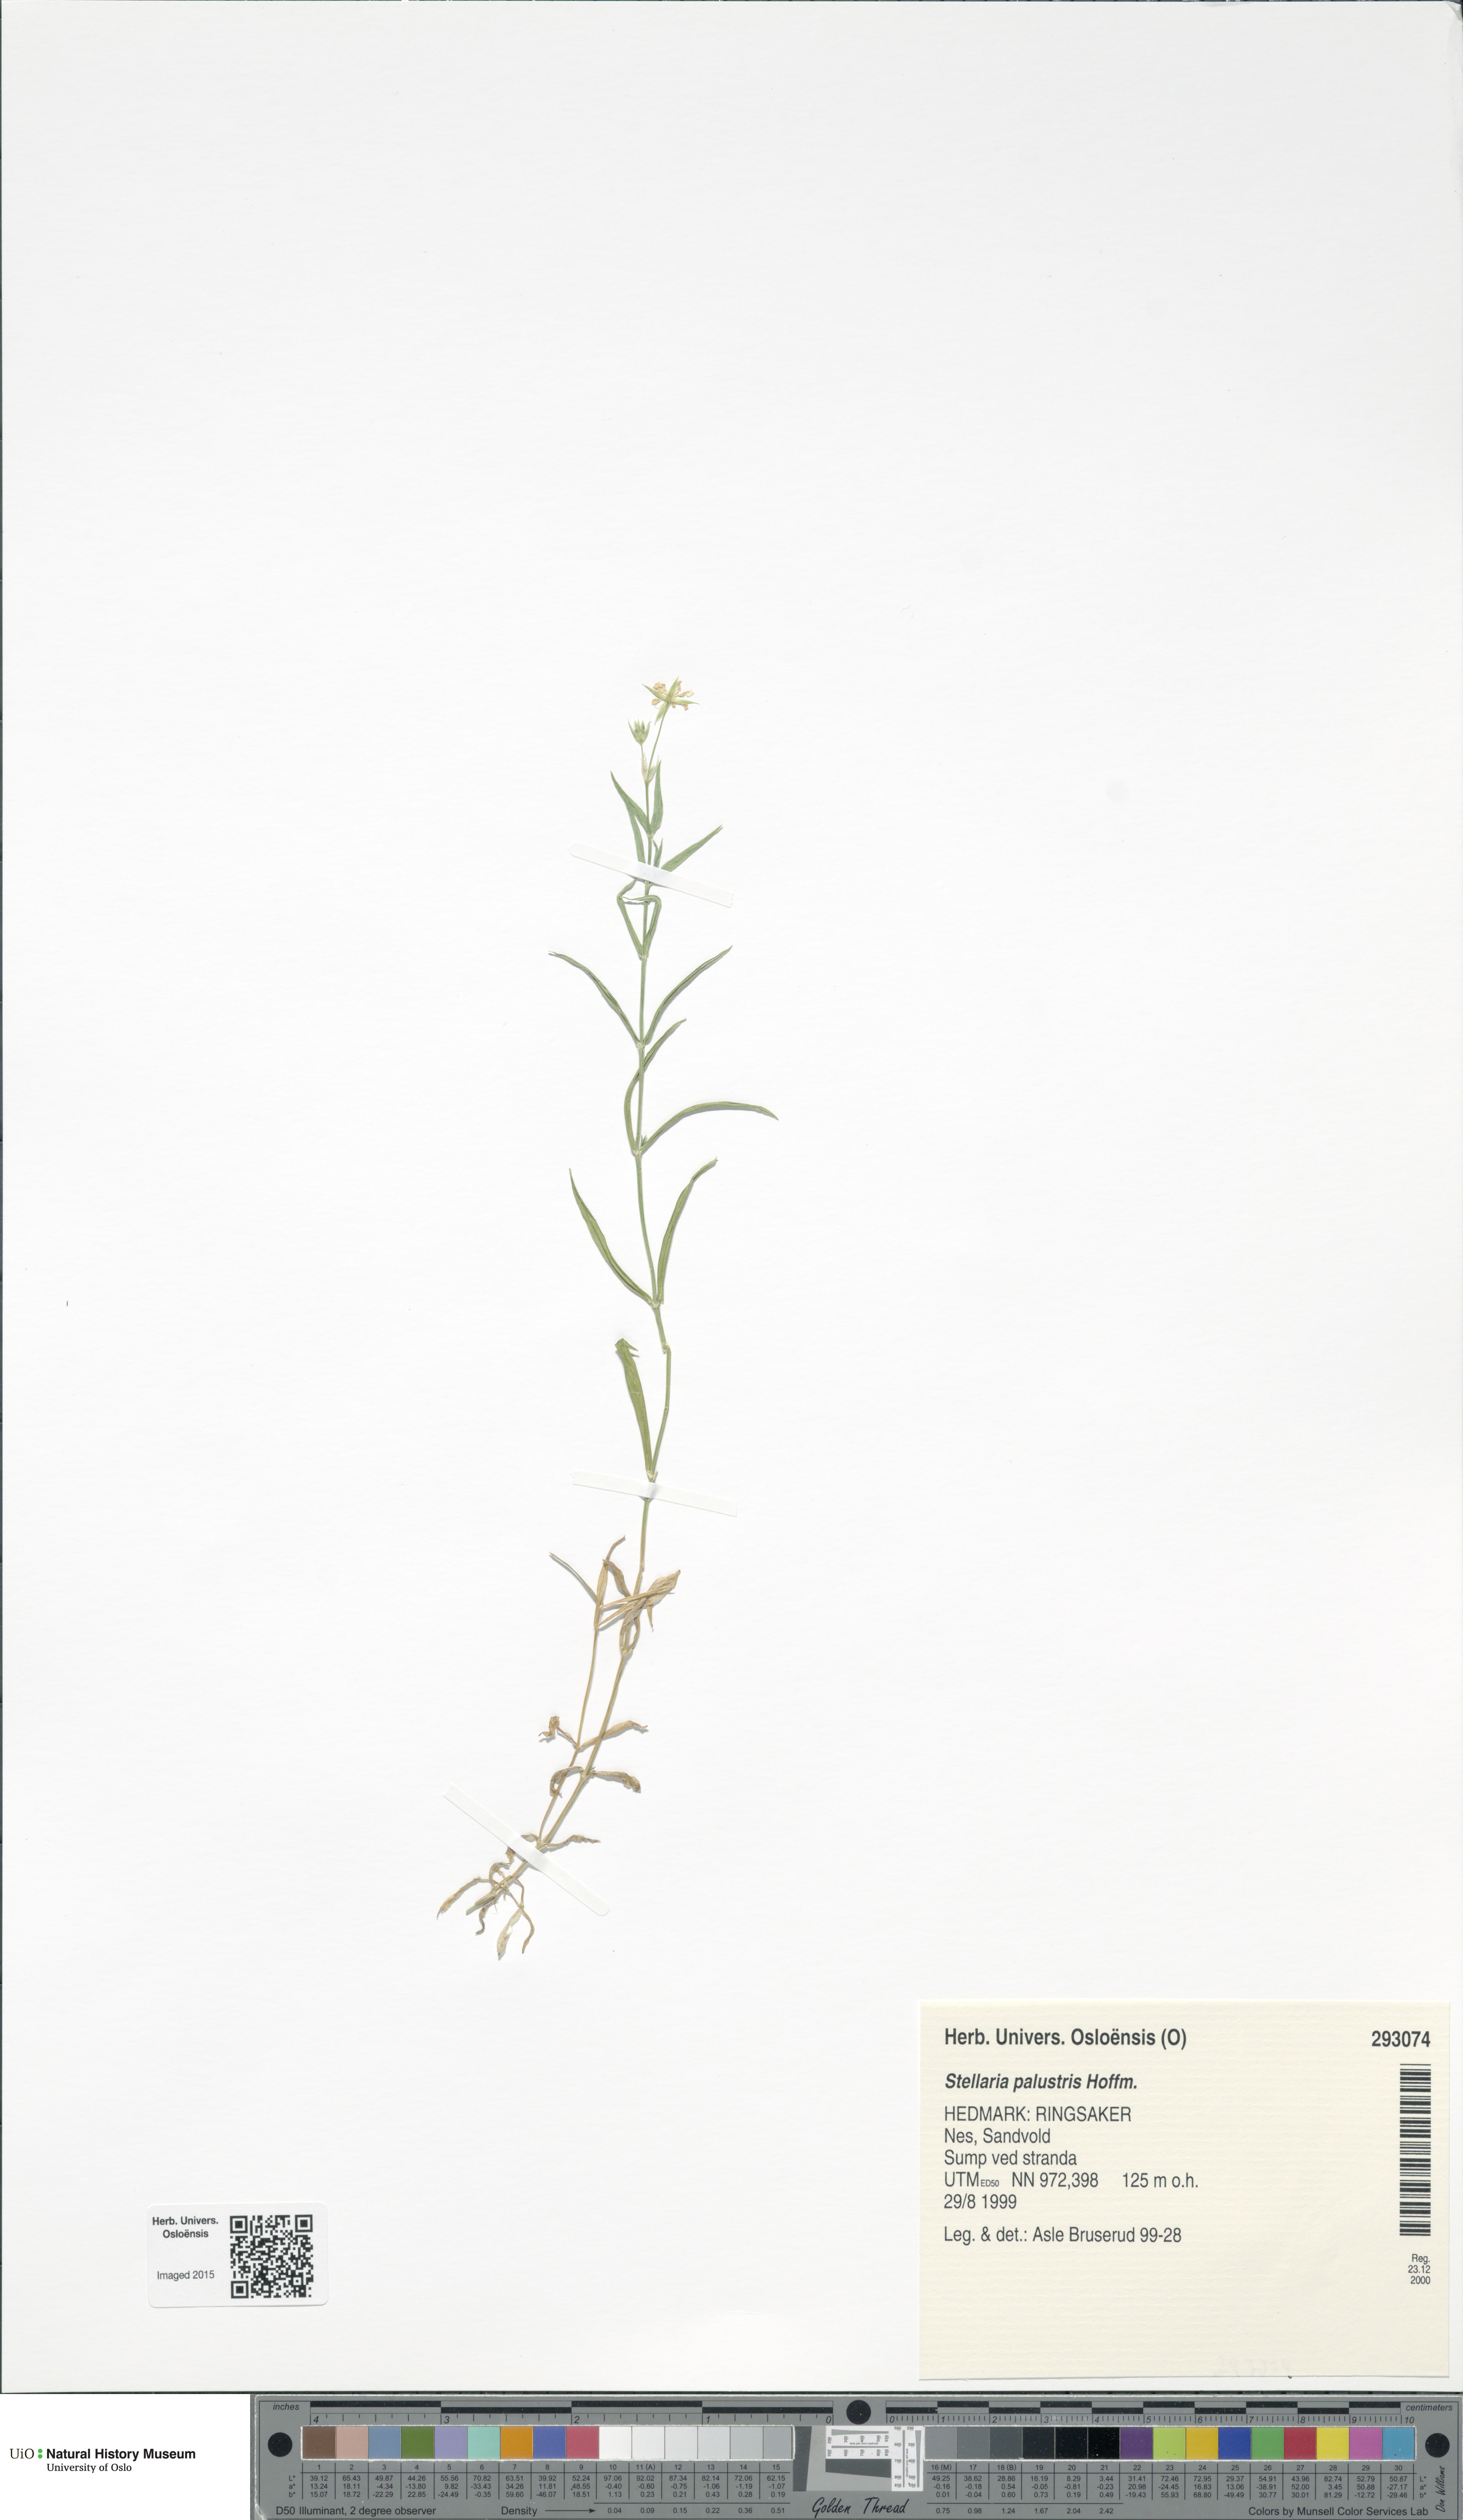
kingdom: Plantae
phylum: Tracheophyta
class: Magnoliopsida
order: Caryophyllales
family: Caryophyllaceae
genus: Stellaria
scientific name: Stellaria palustris
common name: Marsh stitchwort
